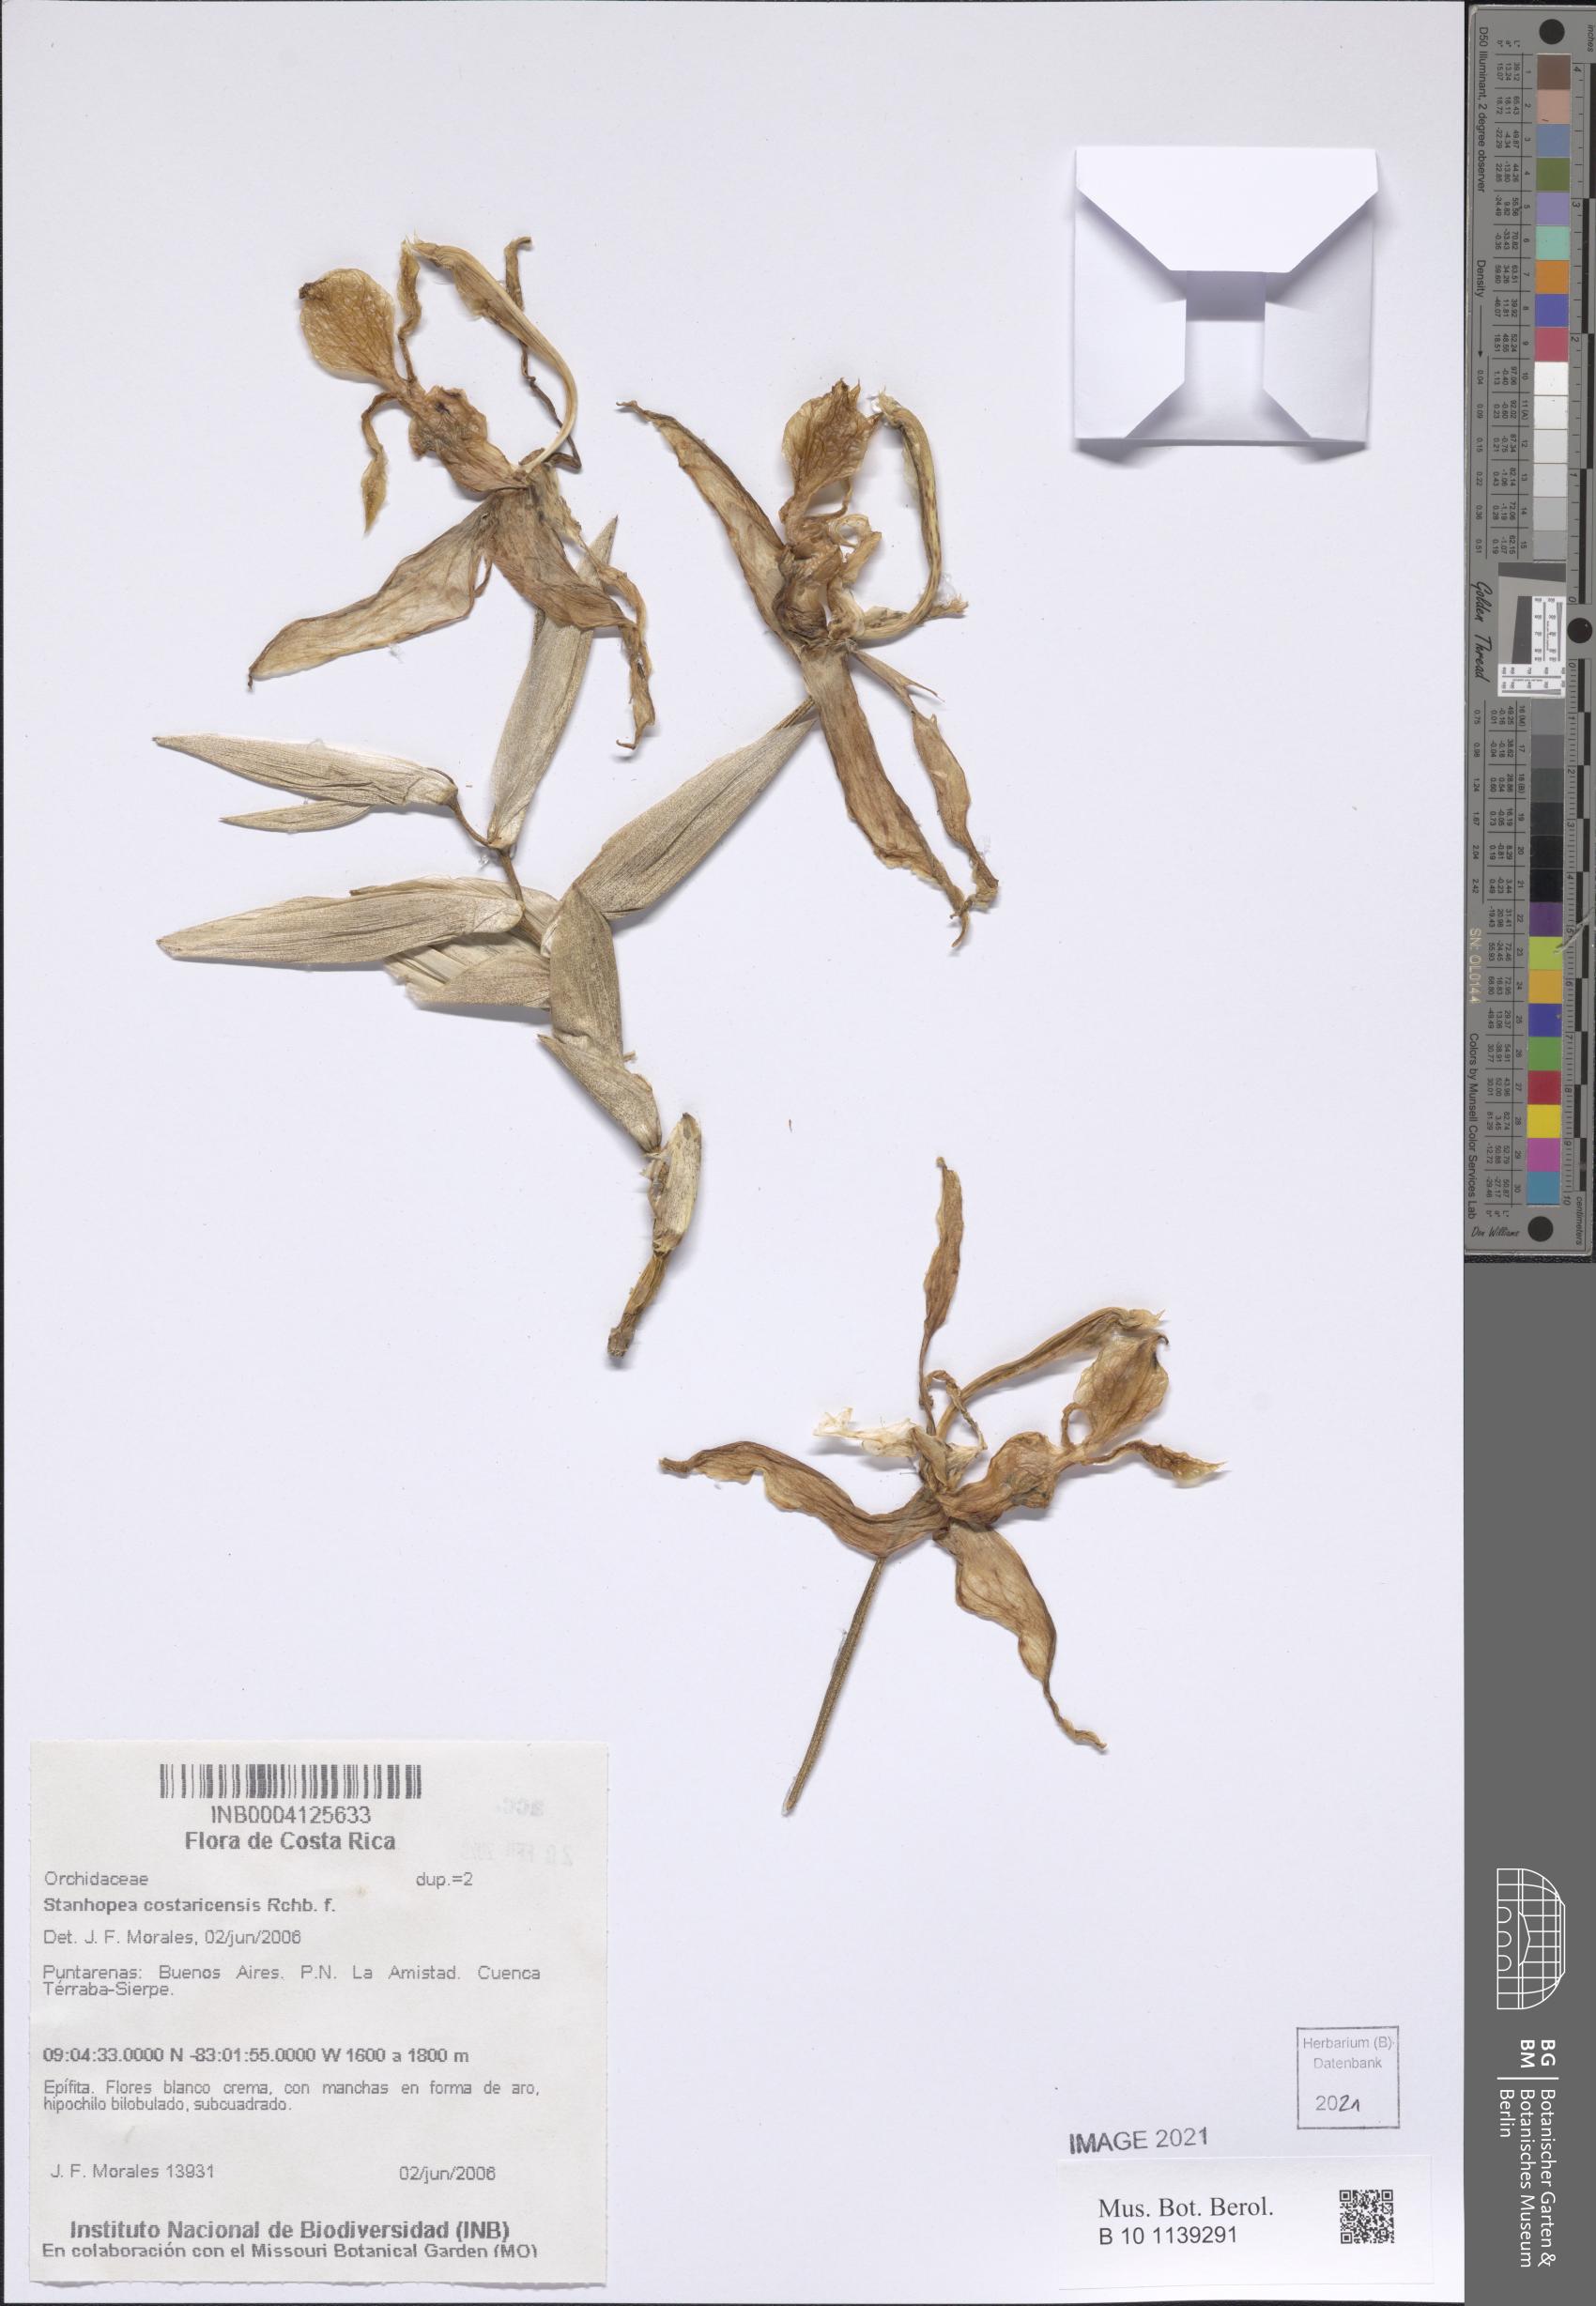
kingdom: Plantae
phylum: Tracheophyta
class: Liliopsida
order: Asparagales
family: Orchidaceae
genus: Stanhopea
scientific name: Stanhopea costaricensis
